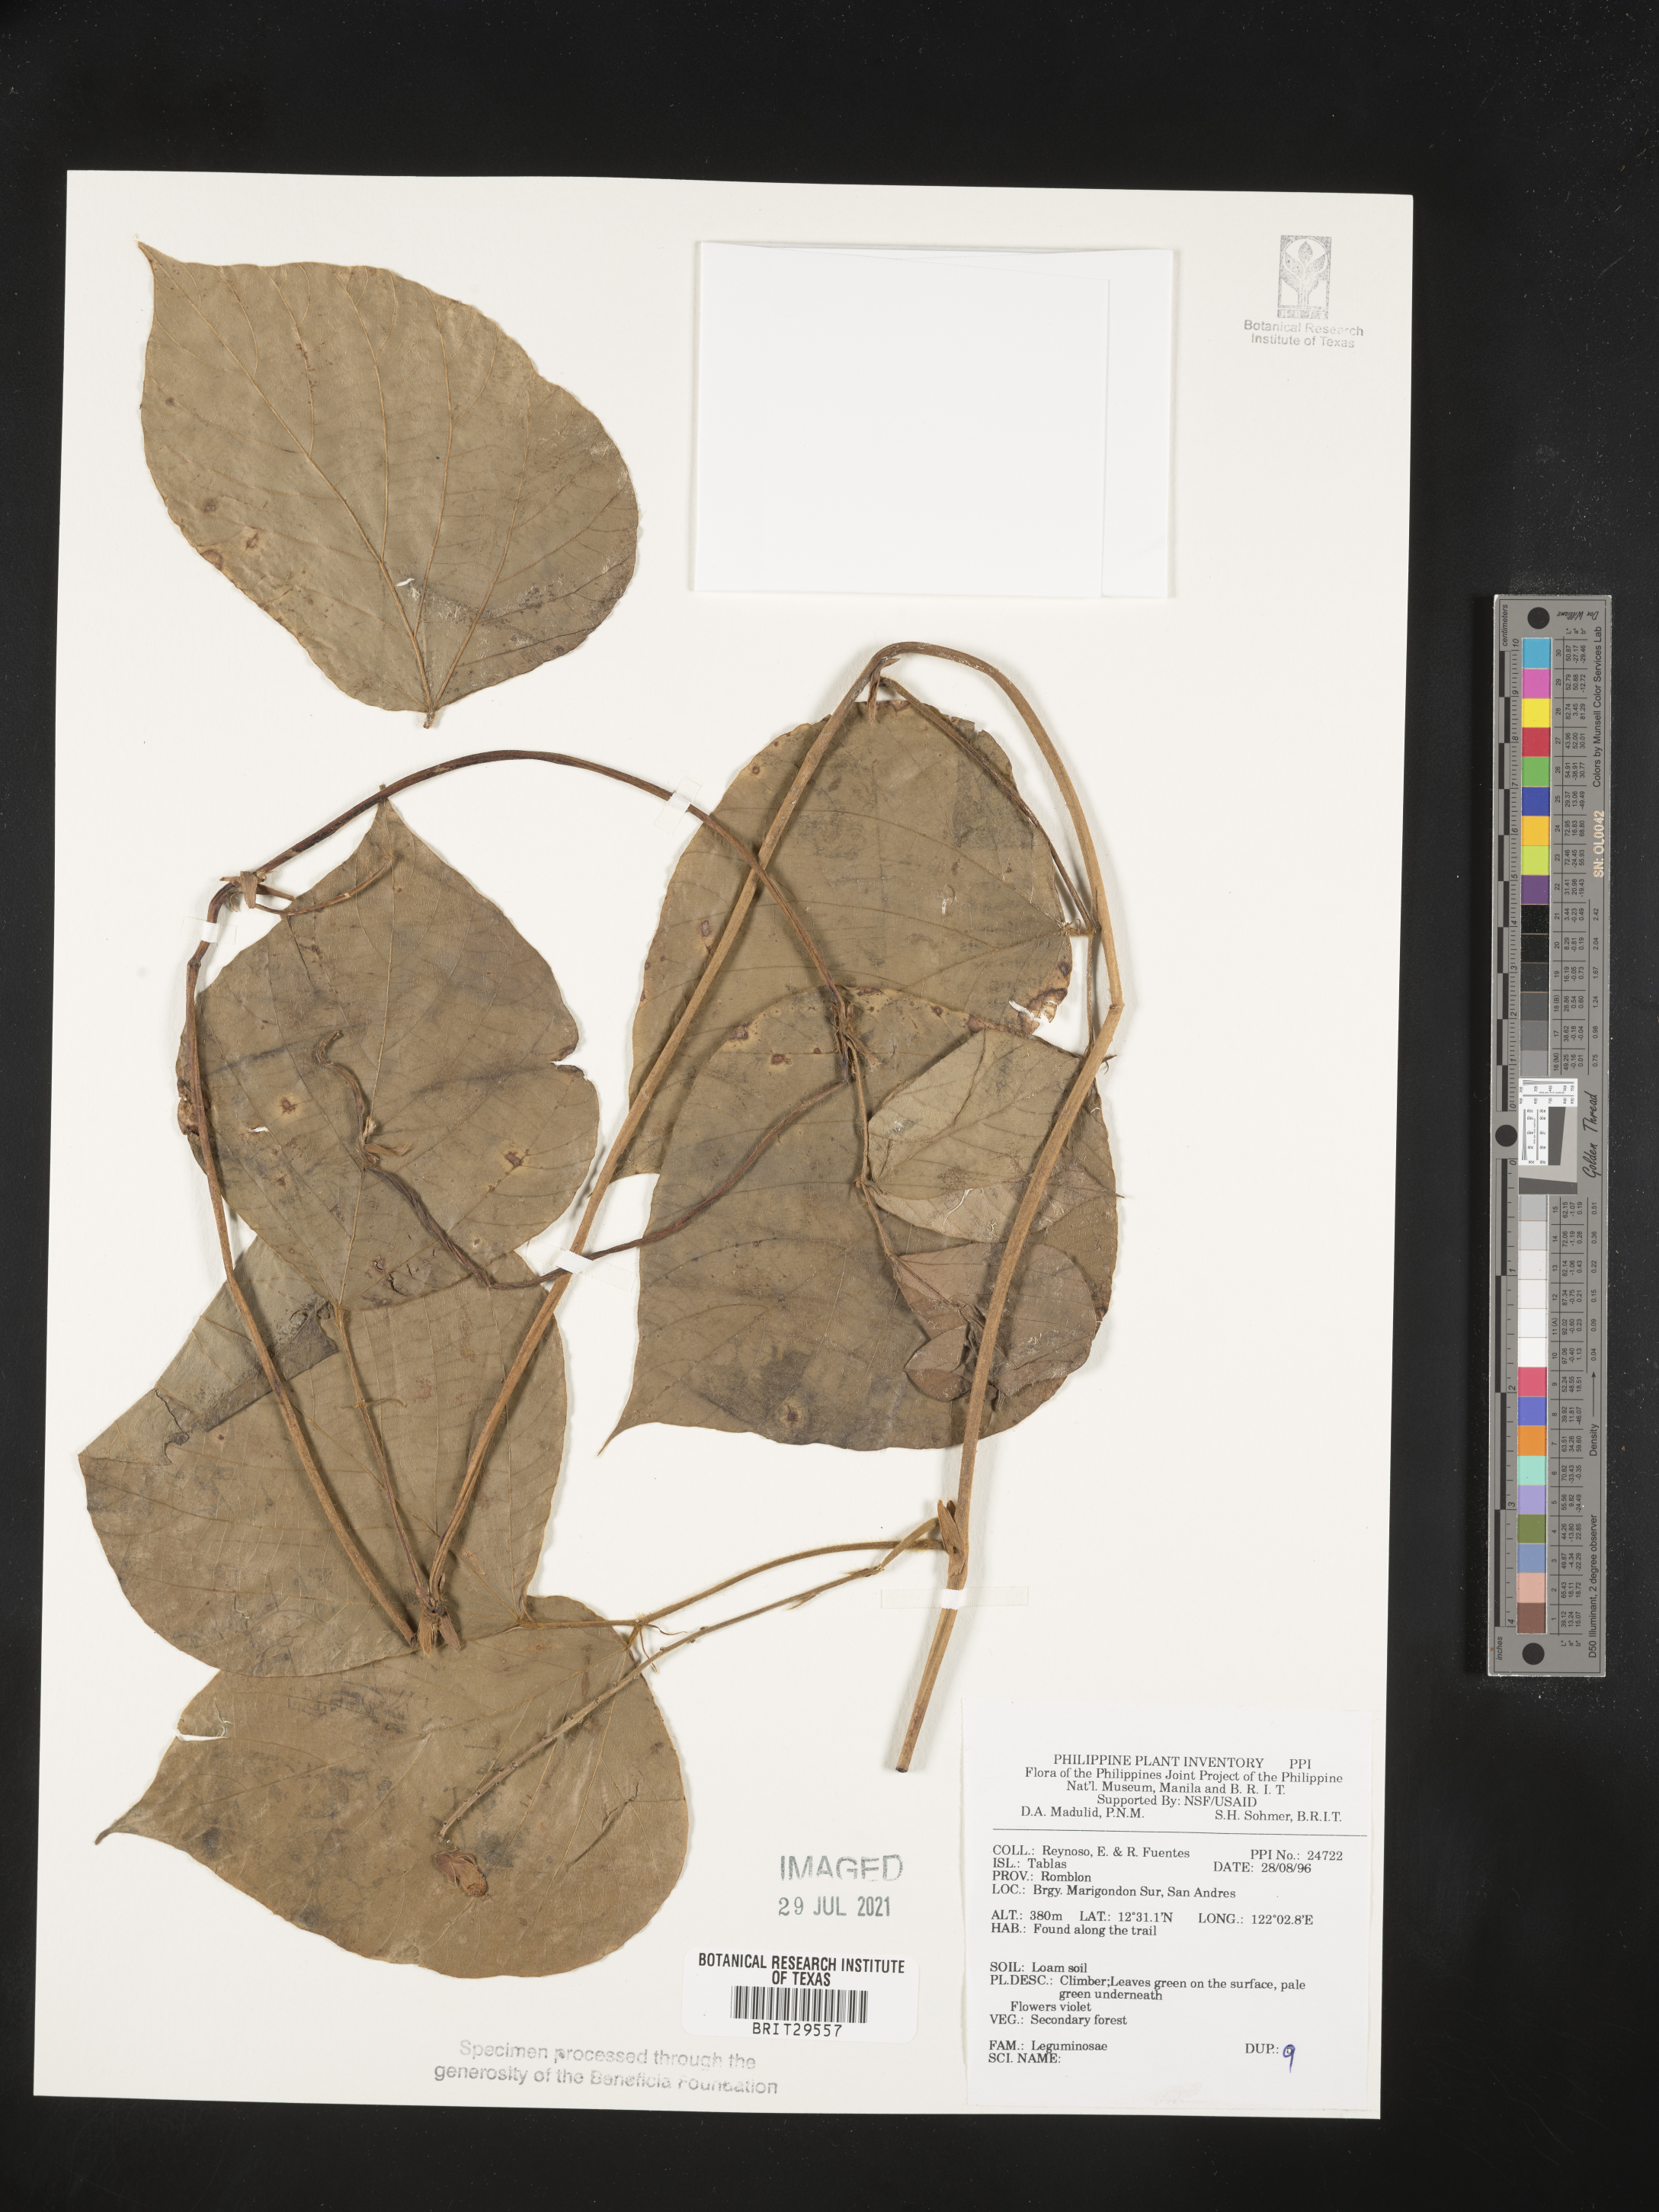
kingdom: Plantae
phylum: Tracheophyta
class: Magnoliopsida
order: Fabales
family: Fabaceae
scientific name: Fabaceae
